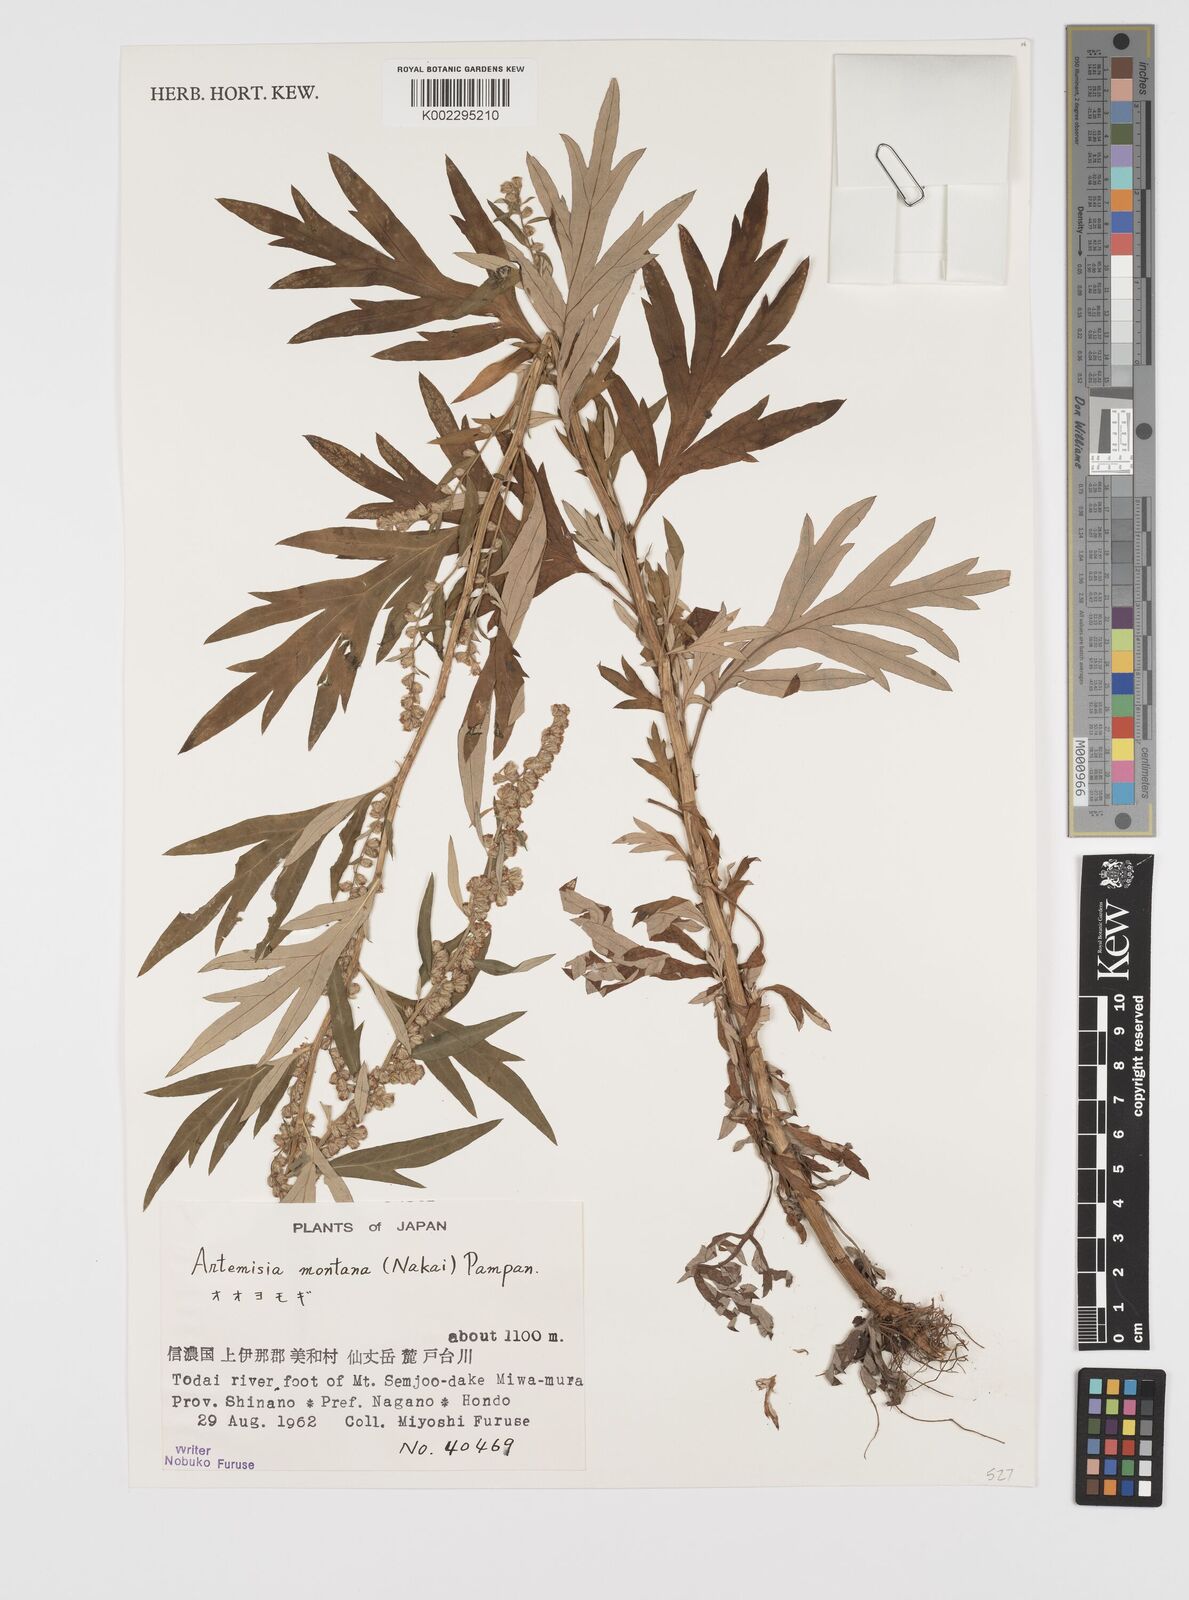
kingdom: Plantae
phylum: Tracheophyta
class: Magnoliopsida
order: Asterales
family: Asteraceae
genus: Artemisia
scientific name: Artemisia montana
